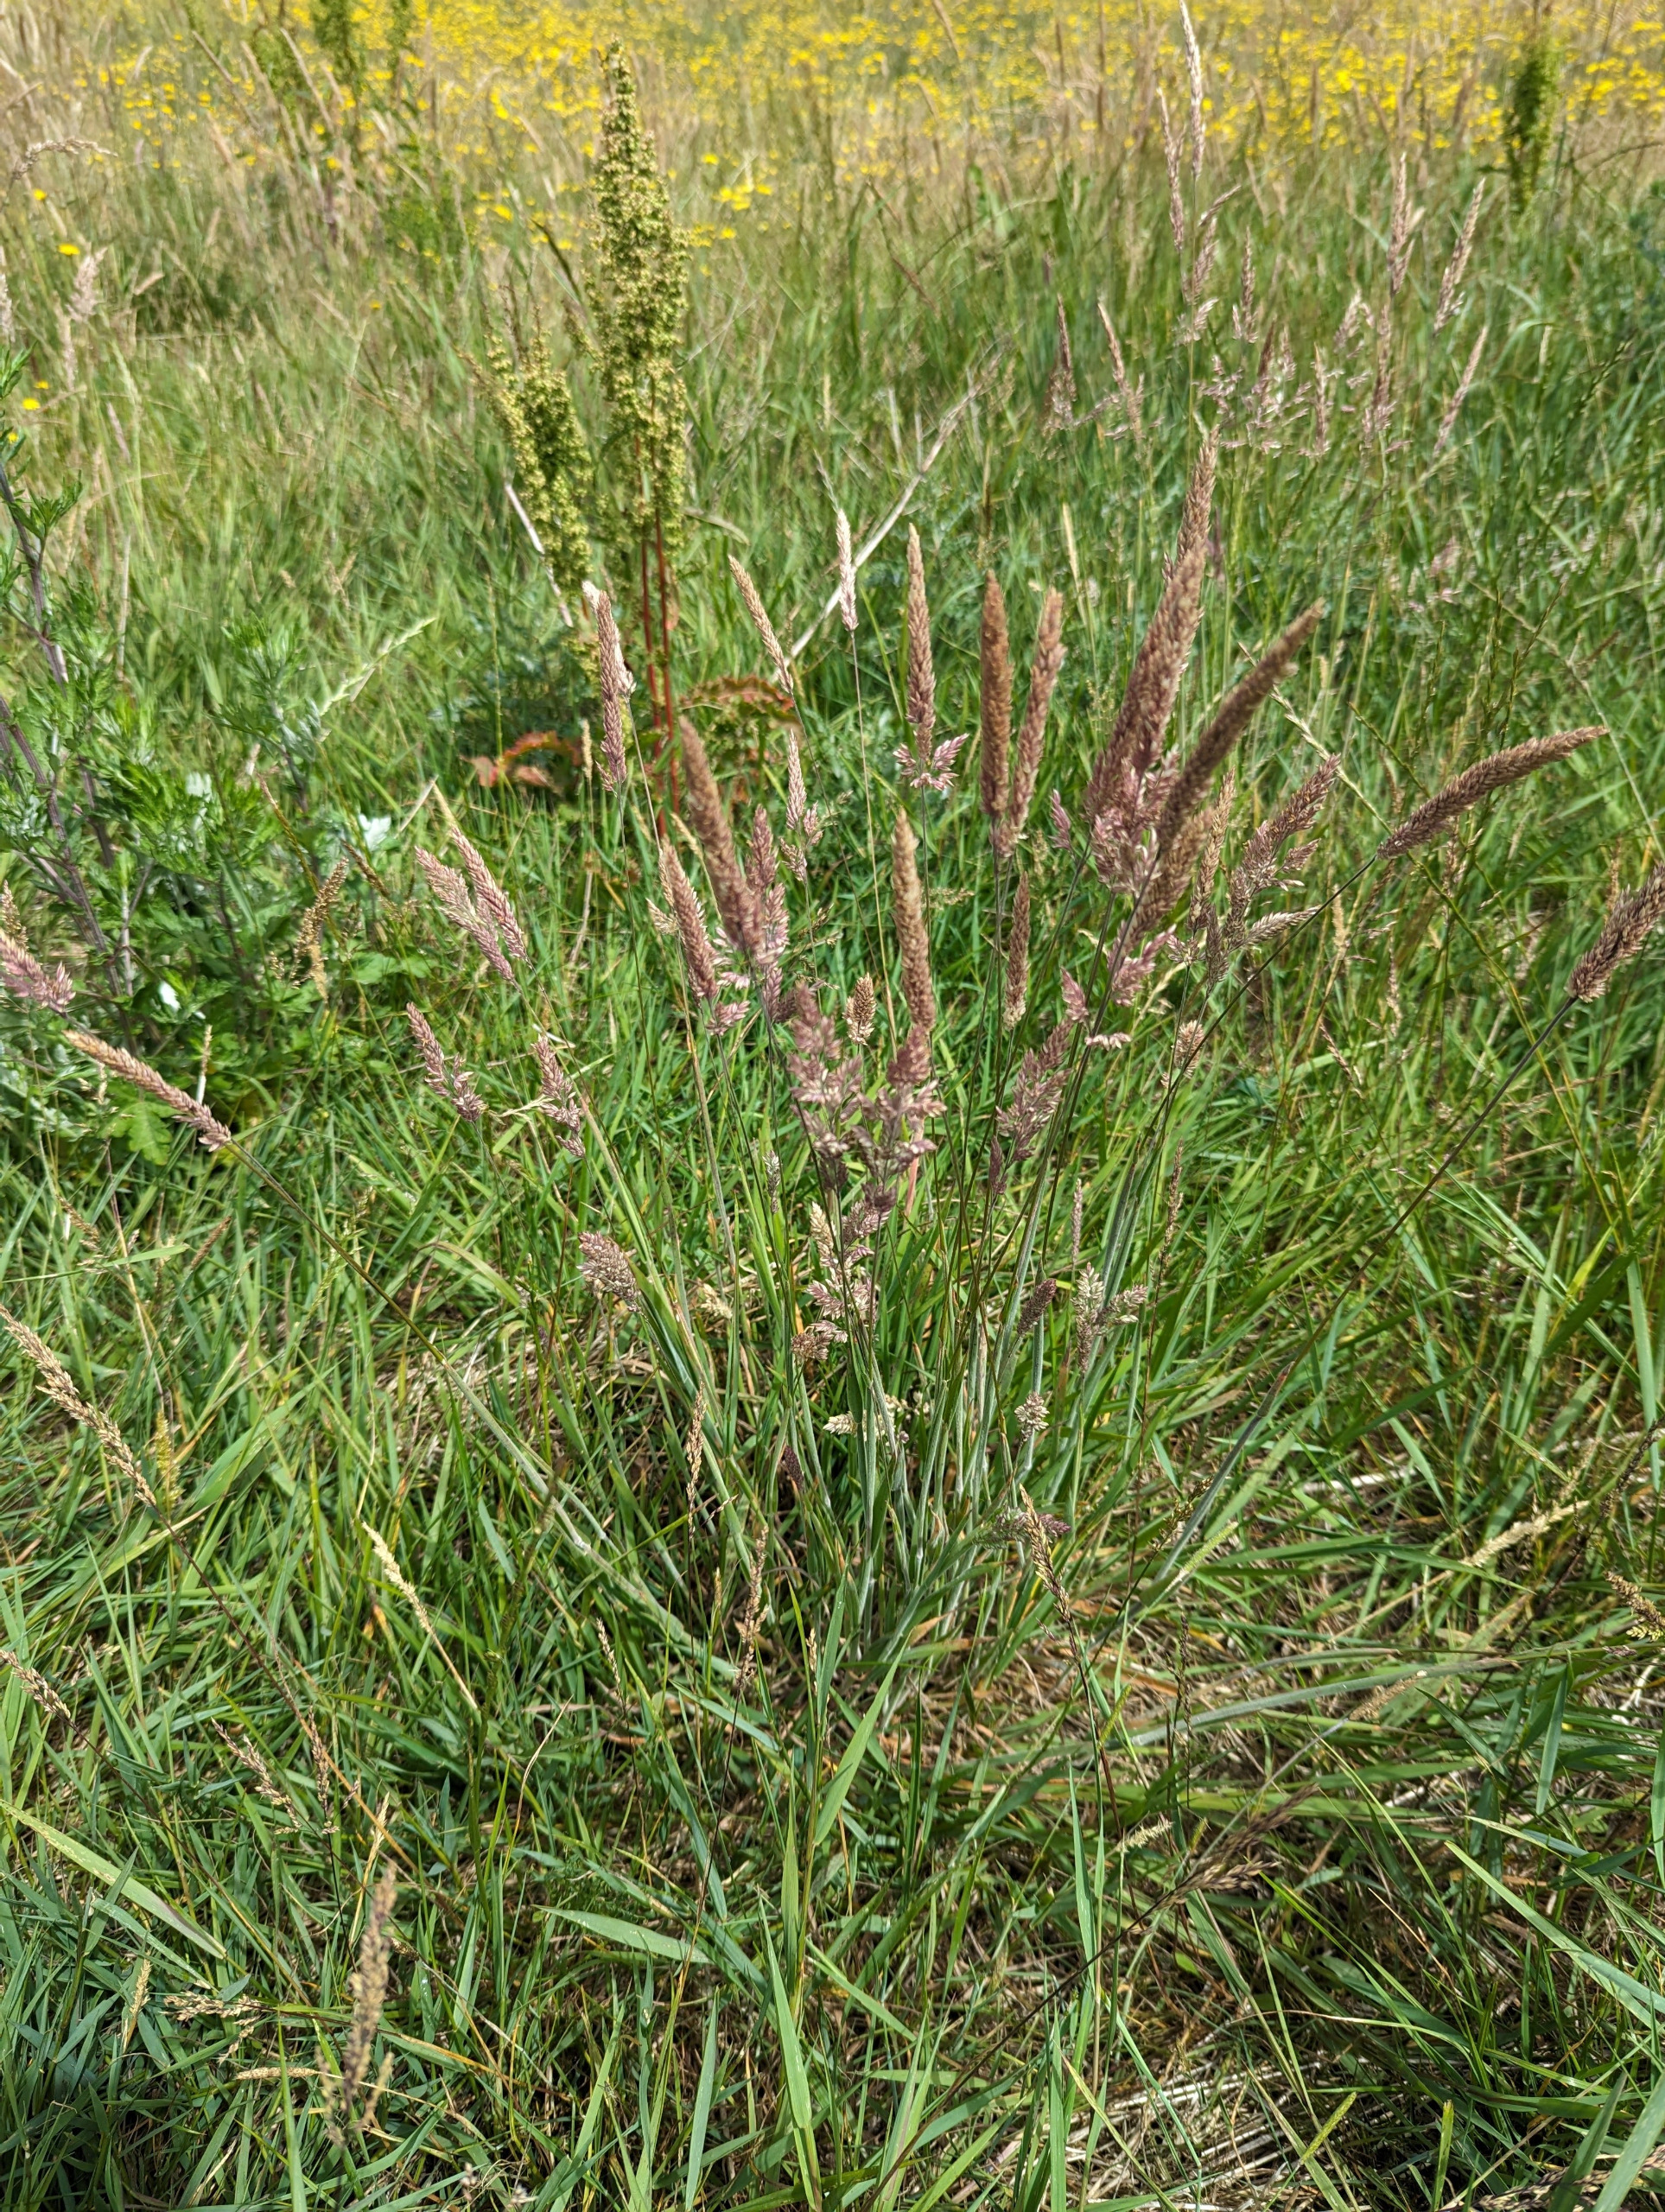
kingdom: Plantae
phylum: Tracheophyta
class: Liliopsida
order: Poales
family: Poaceae
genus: Holcus
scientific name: Holcus lanatus
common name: Fløjlsgræs
